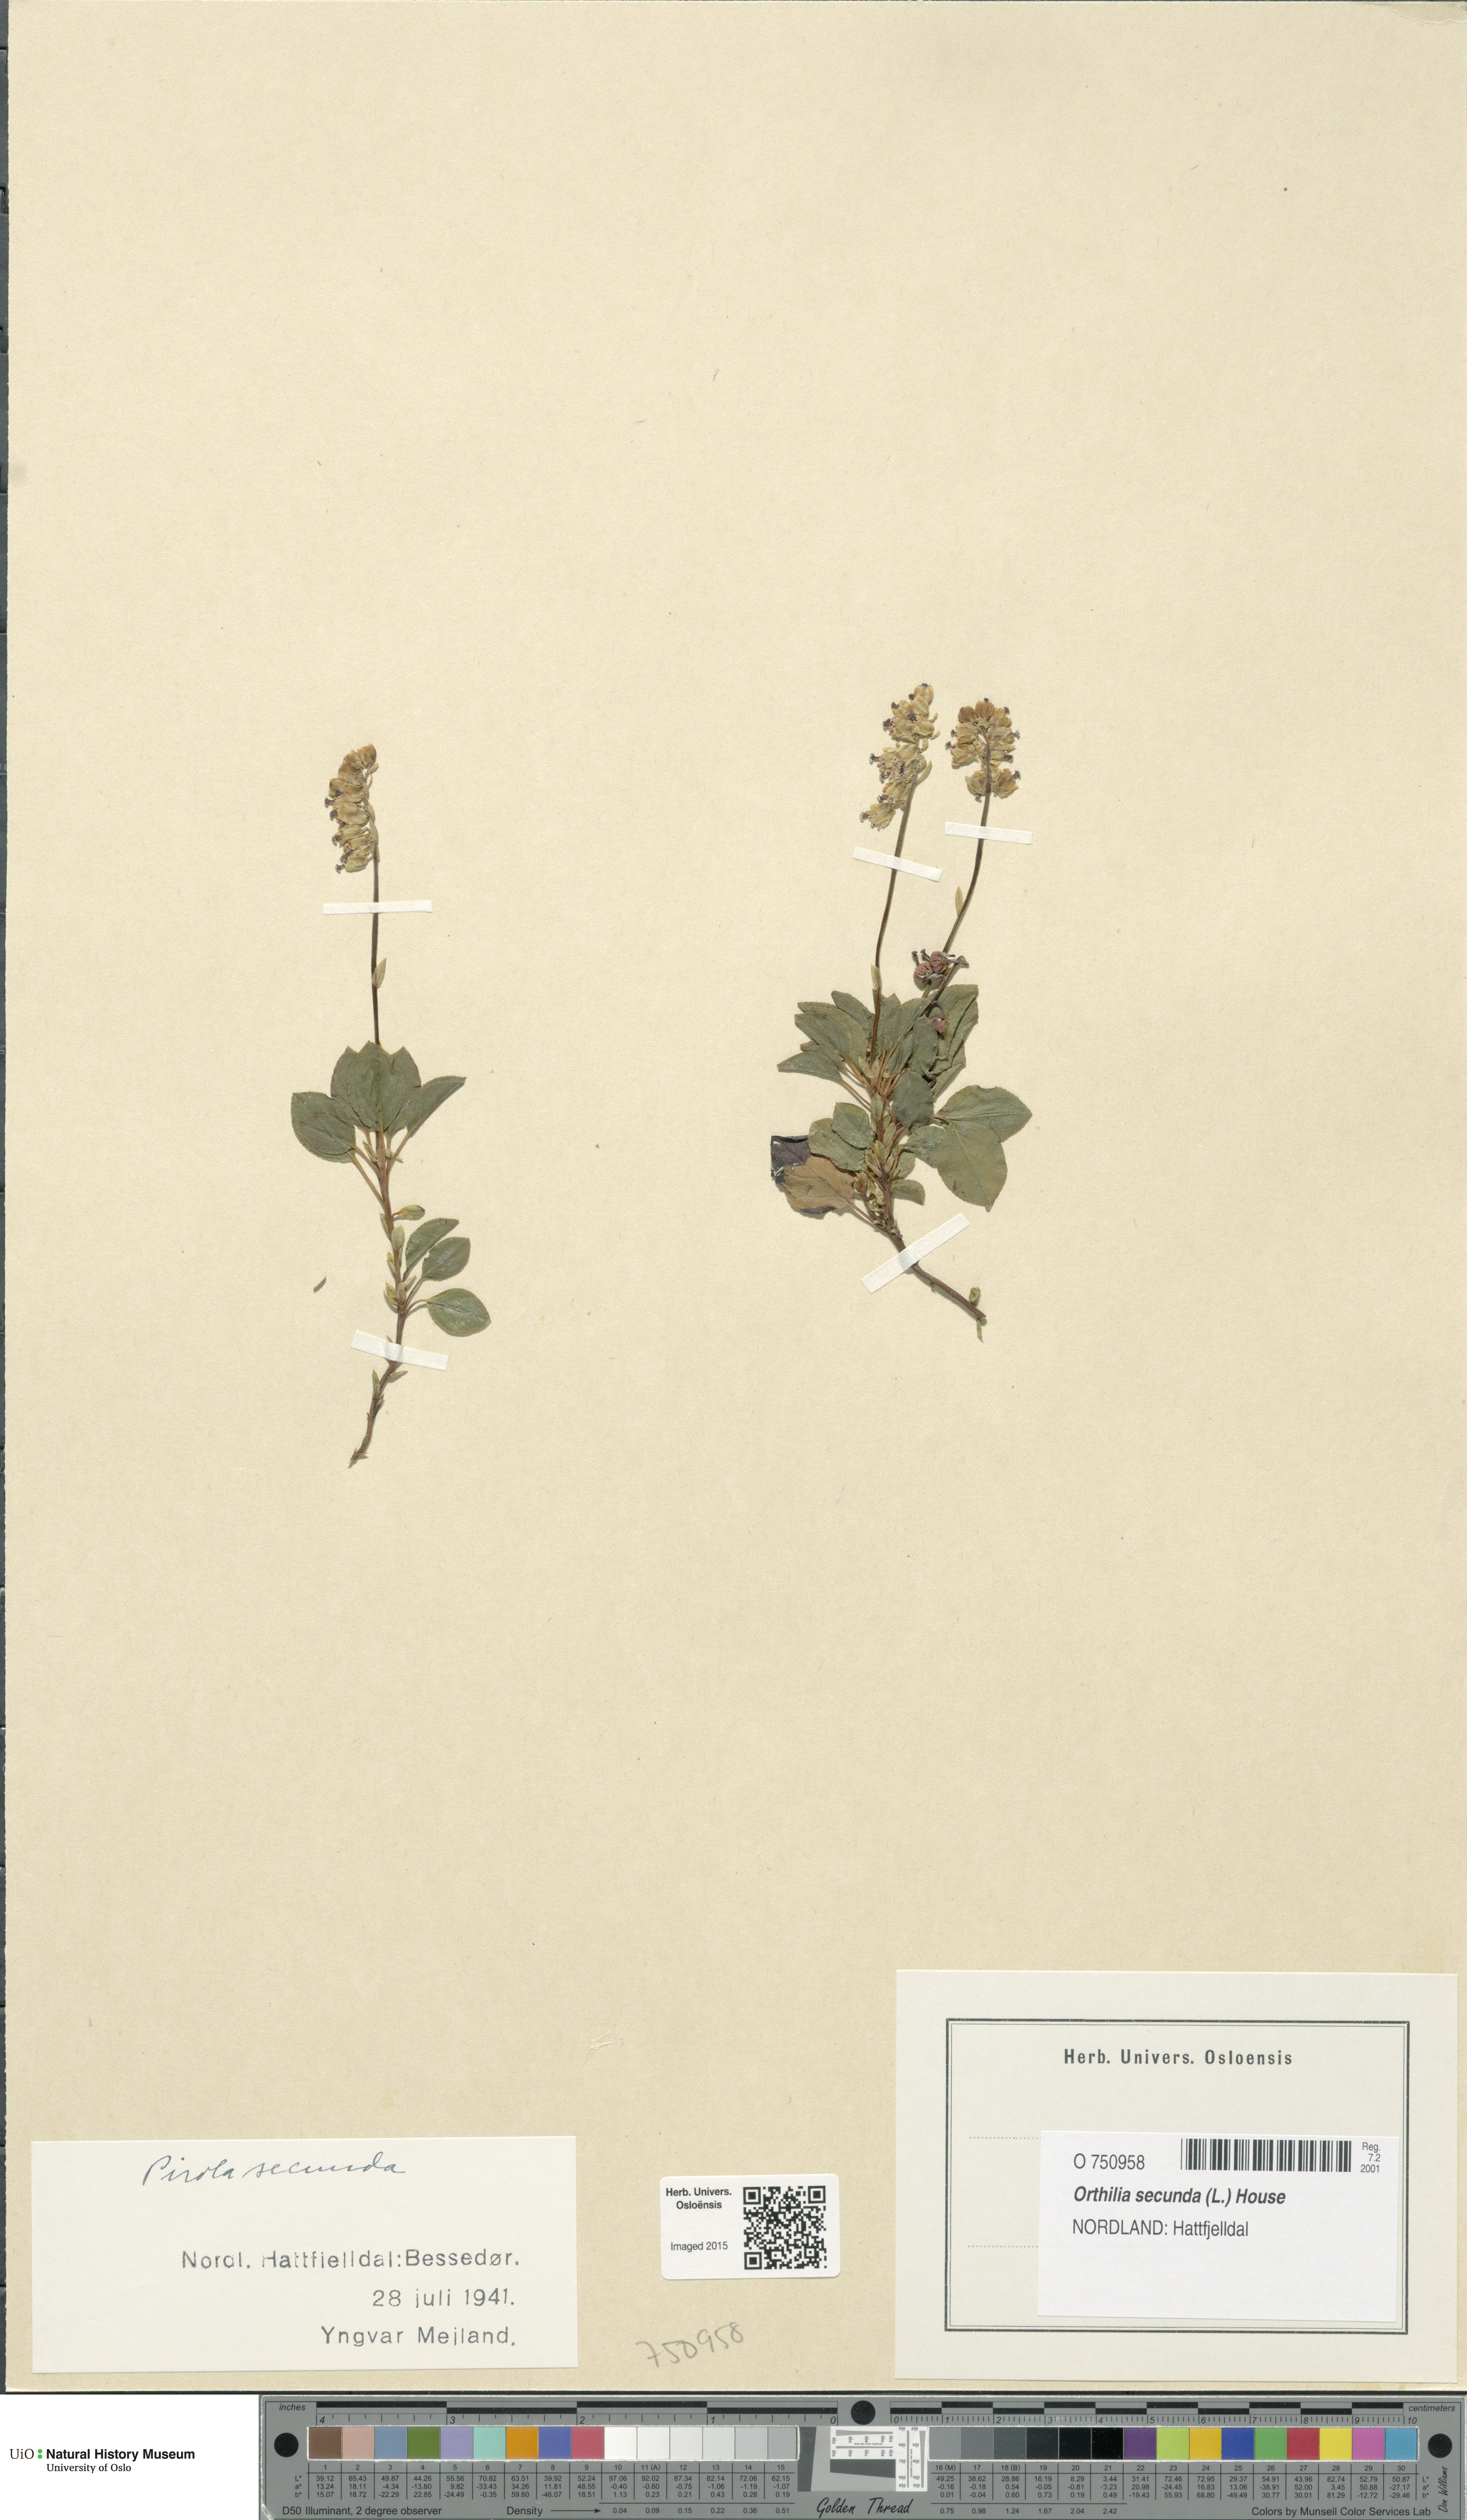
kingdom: Plantae
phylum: Tracheophyta
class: Magnoliopsida
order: Ericales
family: Ericaceae
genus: Orthilia
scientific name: Orthilia secunda
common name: One-sided orthilia
